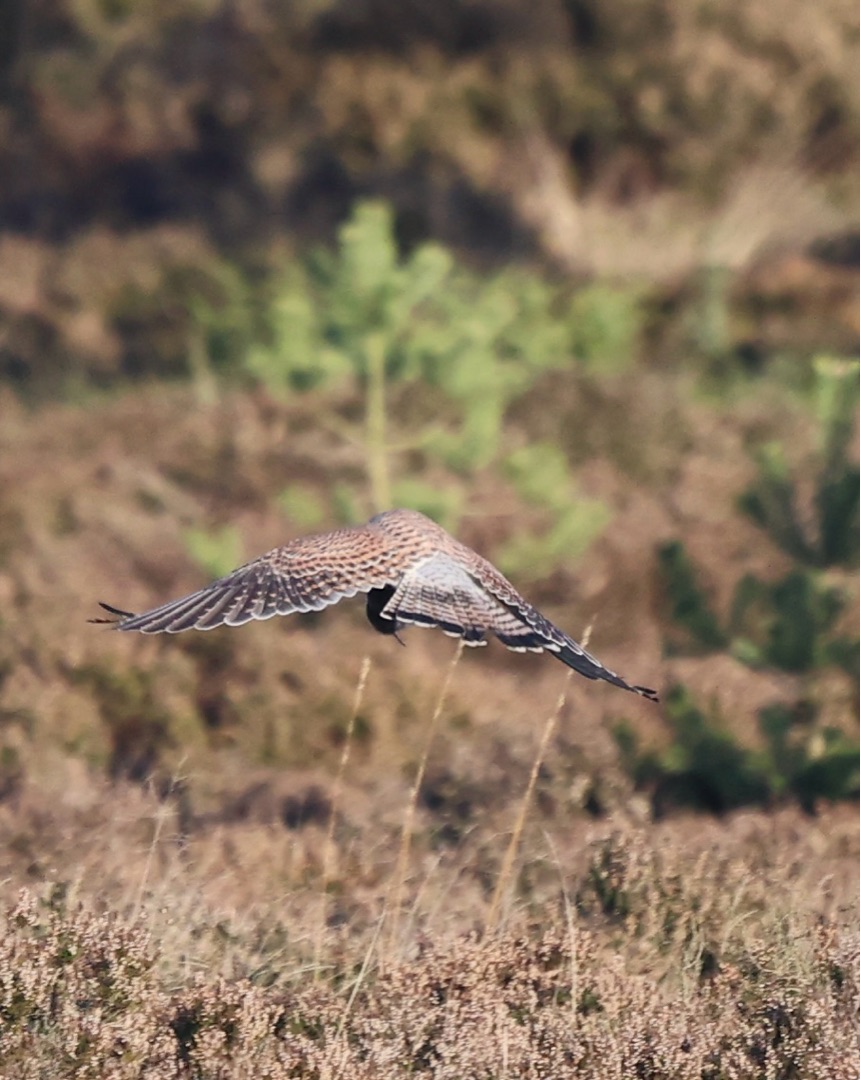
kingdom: Animalia
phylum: Chordata
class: Aves
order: Falconiformes
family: Falconidae
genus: Falco
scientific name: Falco tinnunculus
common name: Tårnfalk
